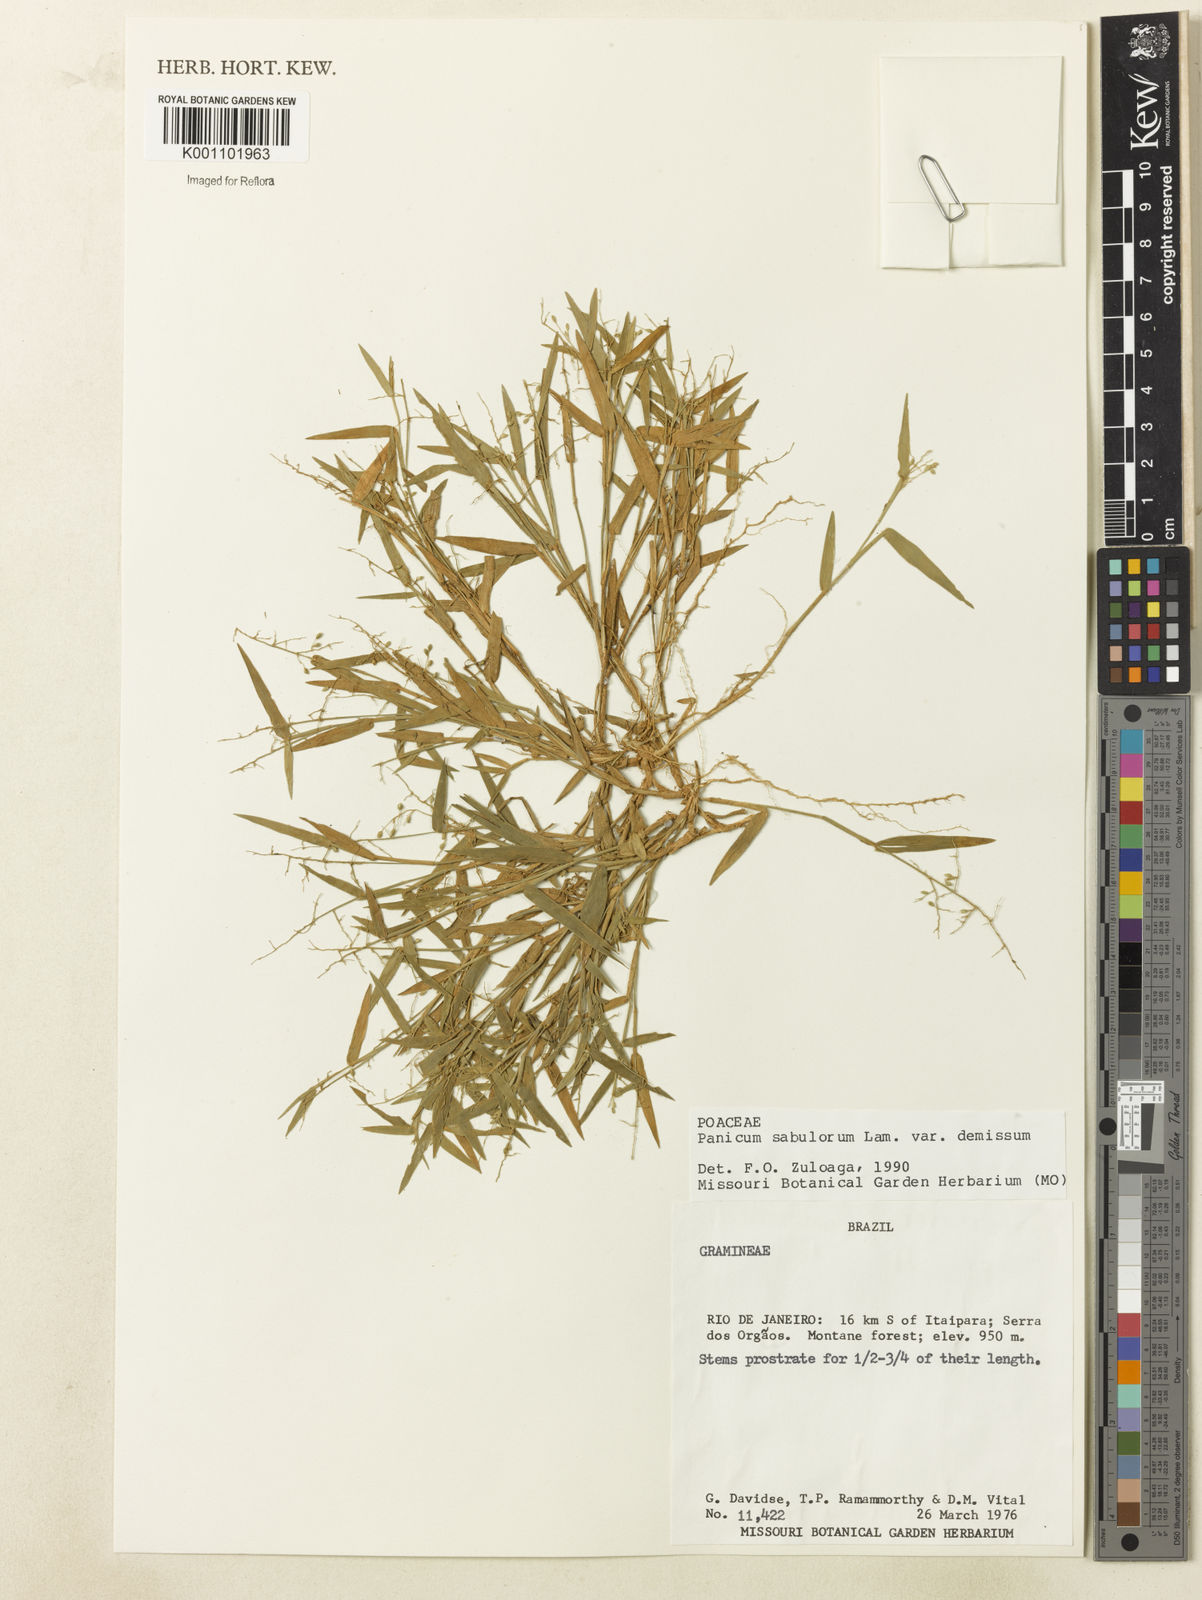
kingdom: Plantae
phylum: Tracheophyta
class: Liliopsida
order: Poales
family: Poaceae
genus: Dichanthelium
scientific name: Dichanthelium sabulorum
